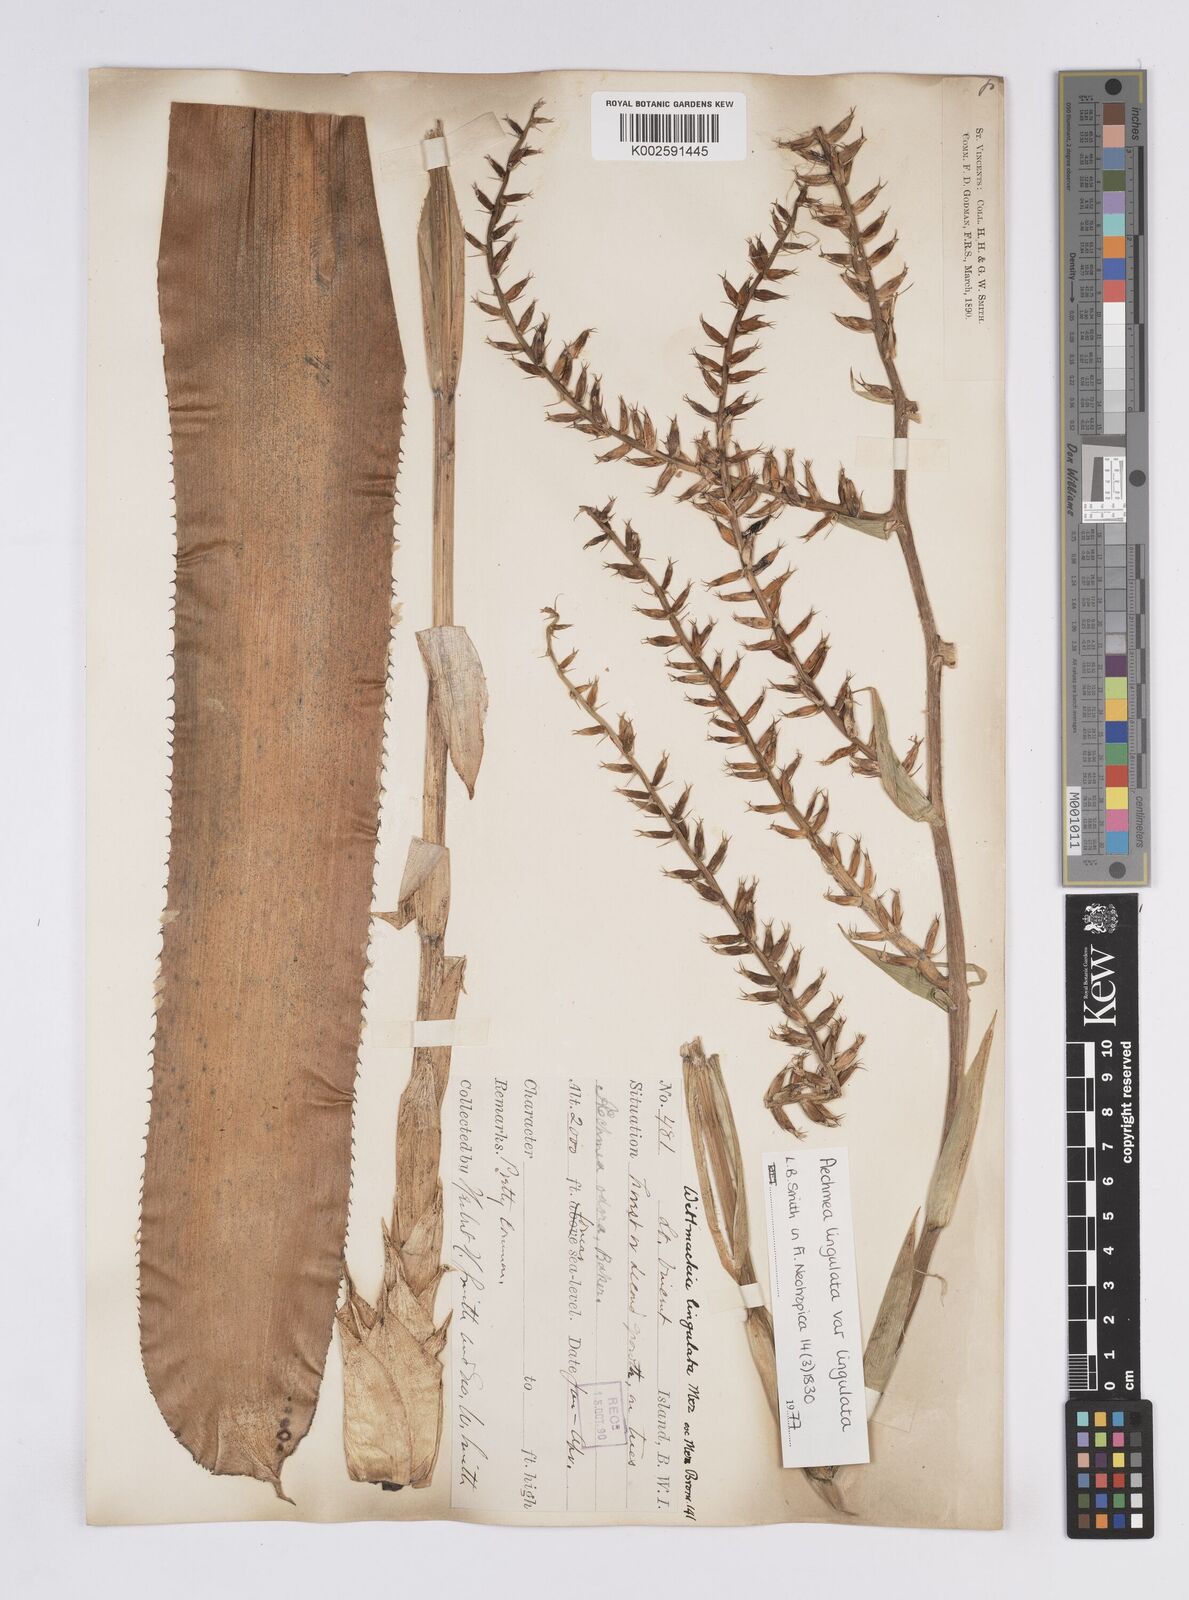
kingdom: Plantae
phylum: Tracheophyta
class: Liliopsida
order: Poales
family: Bromeliaceae
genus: Wittmackia
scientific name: Wittmackia lingulata
